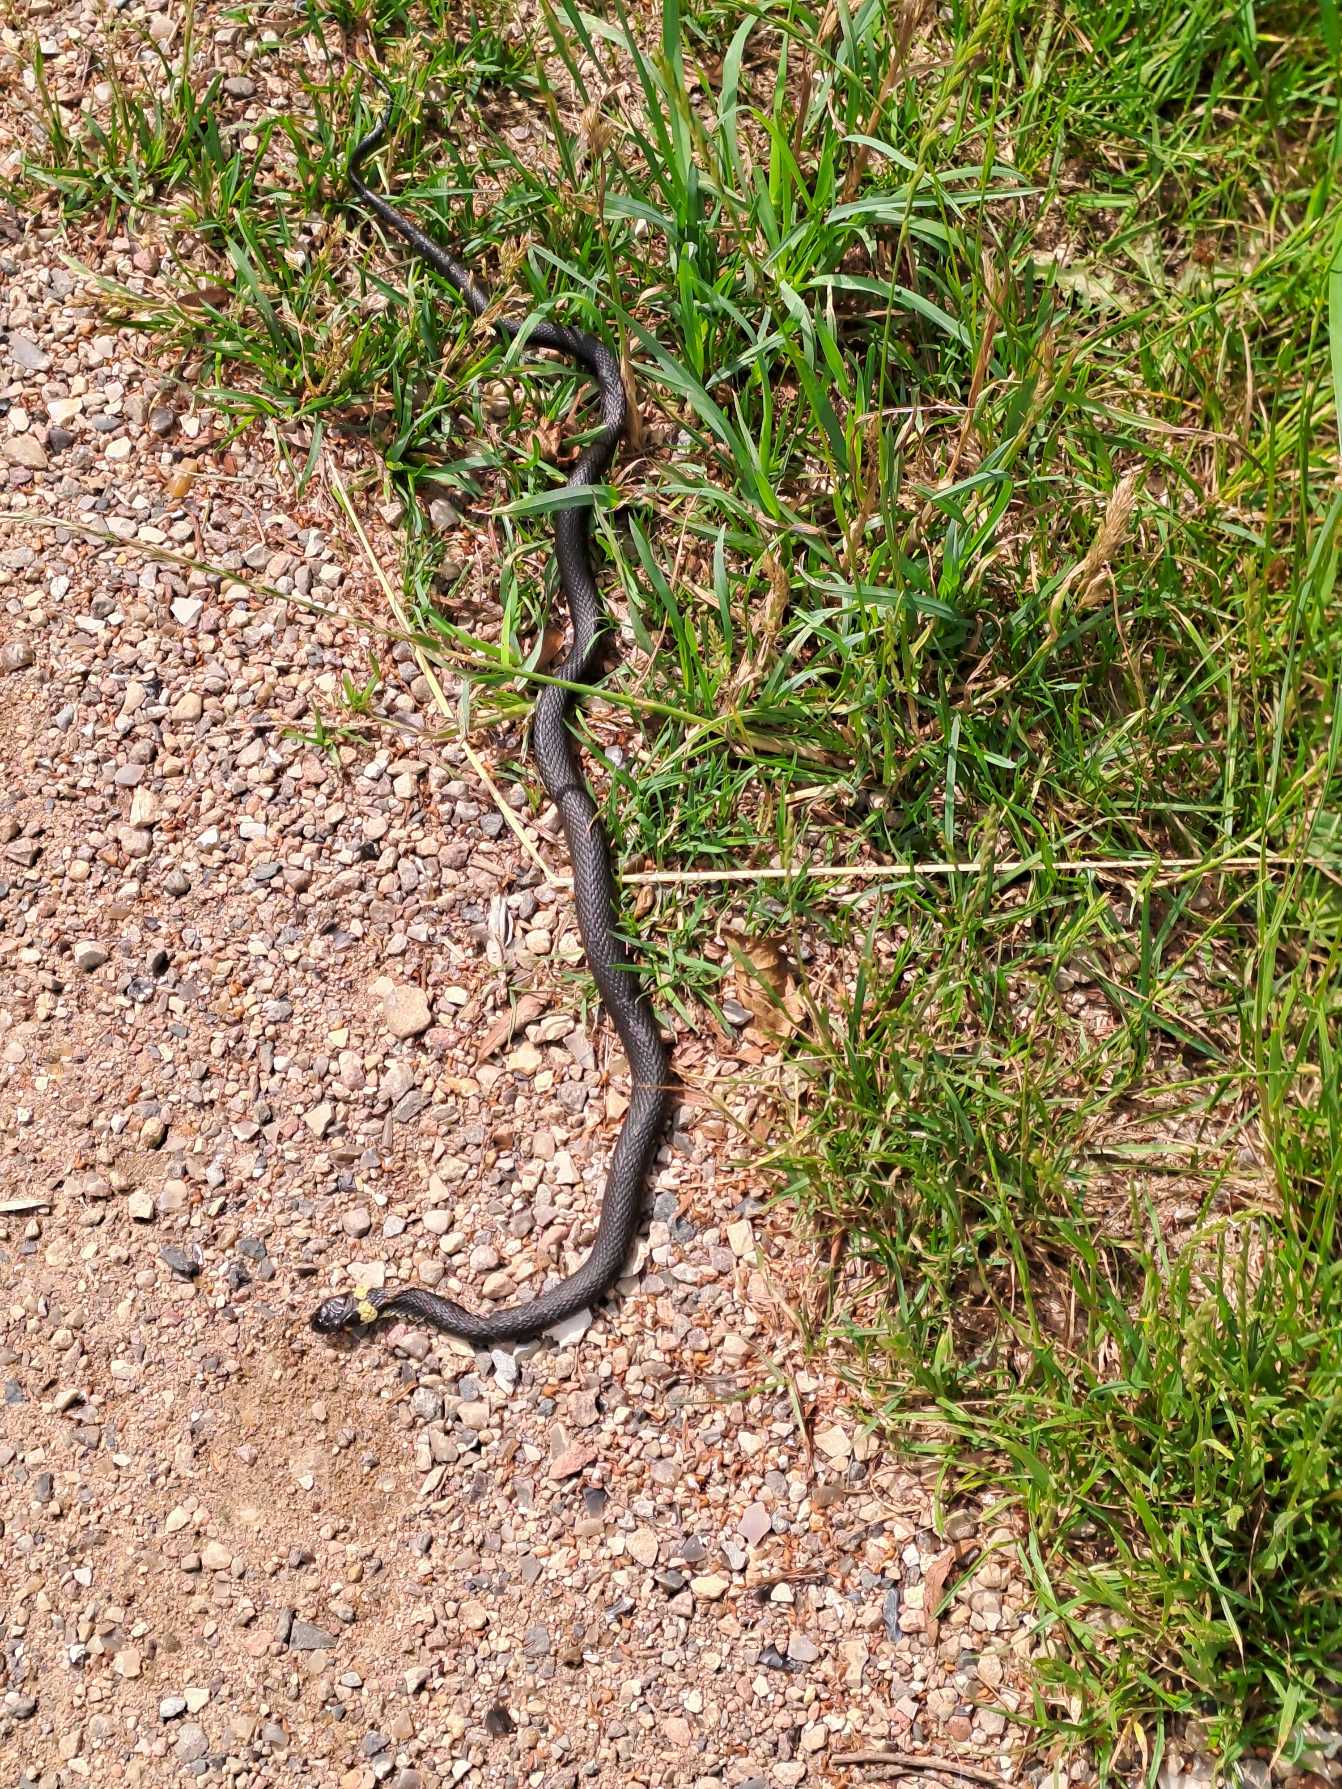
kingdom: Animalia
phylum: Chordata
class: Squamata
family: Colubridae
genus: Natrix
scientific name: Natrix natrix
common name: Snog
